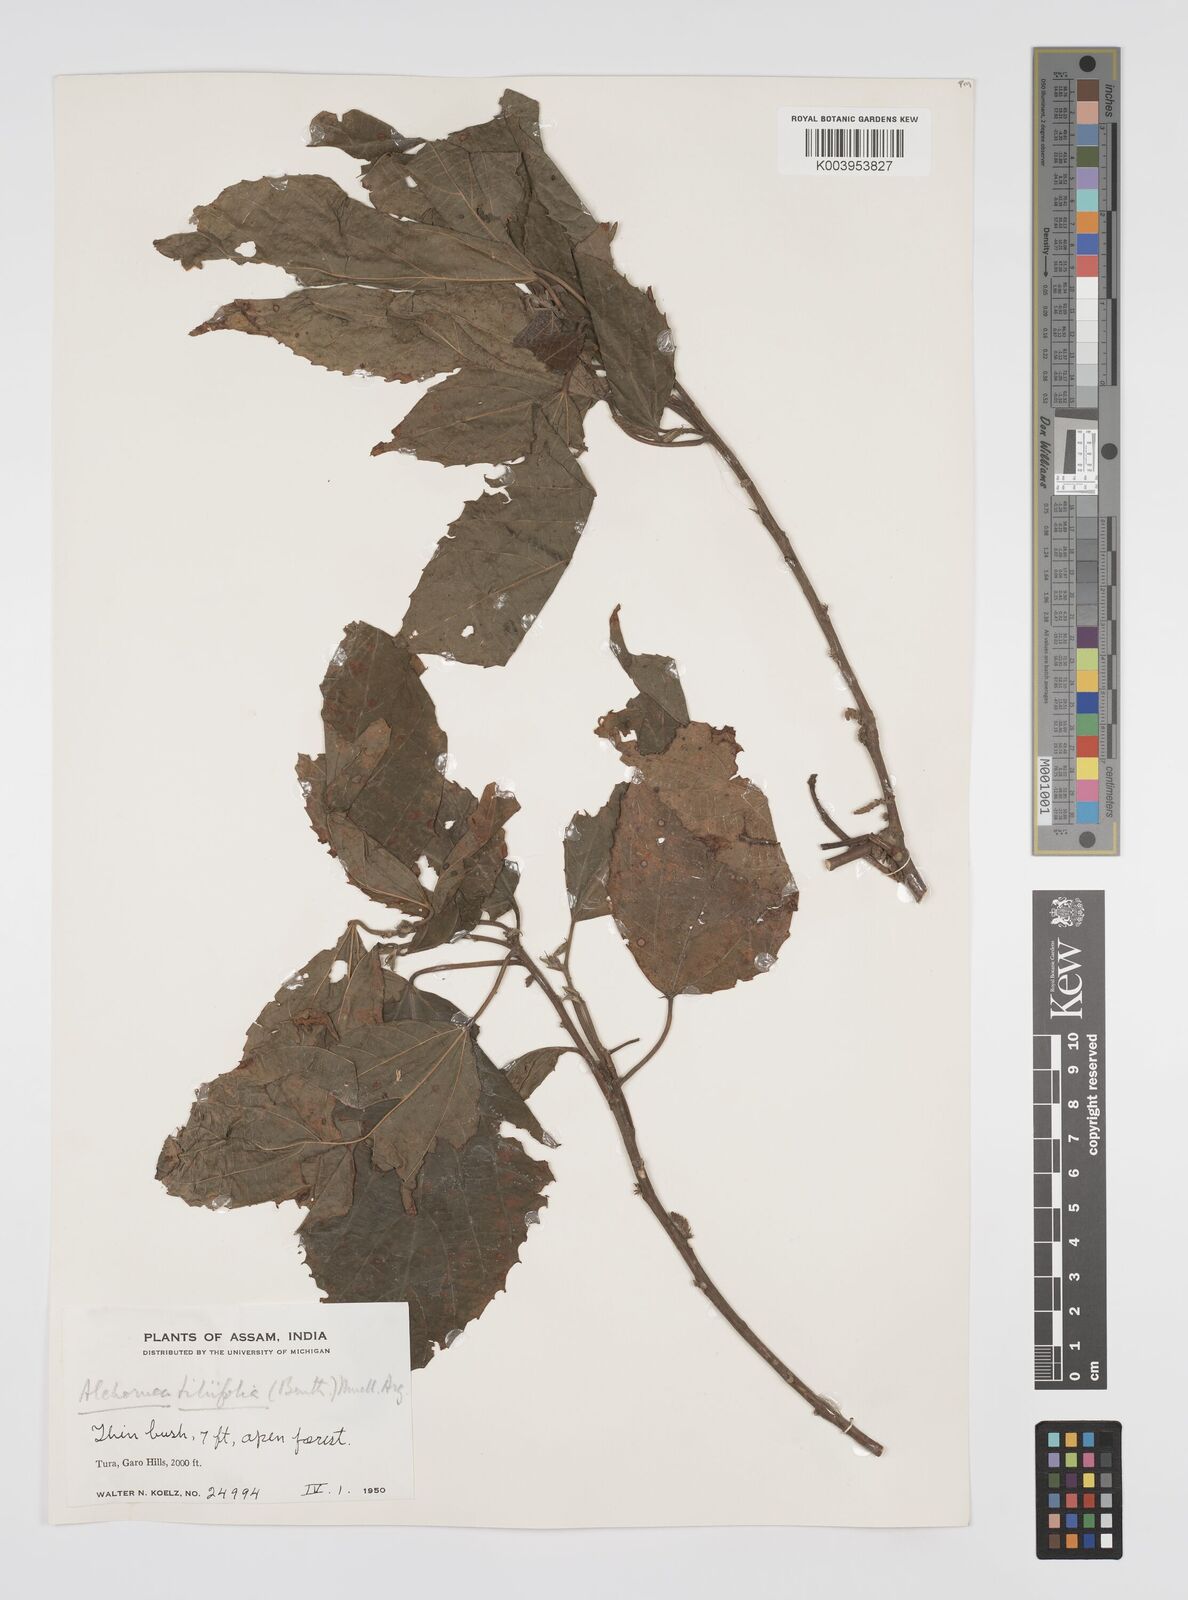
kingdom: Plantae
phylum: Tracheophyta
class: Magnoliopsida
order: Malpighiales
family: Euphorbiaceae
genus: Alchornea
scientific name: Alchornea tiliifolia
